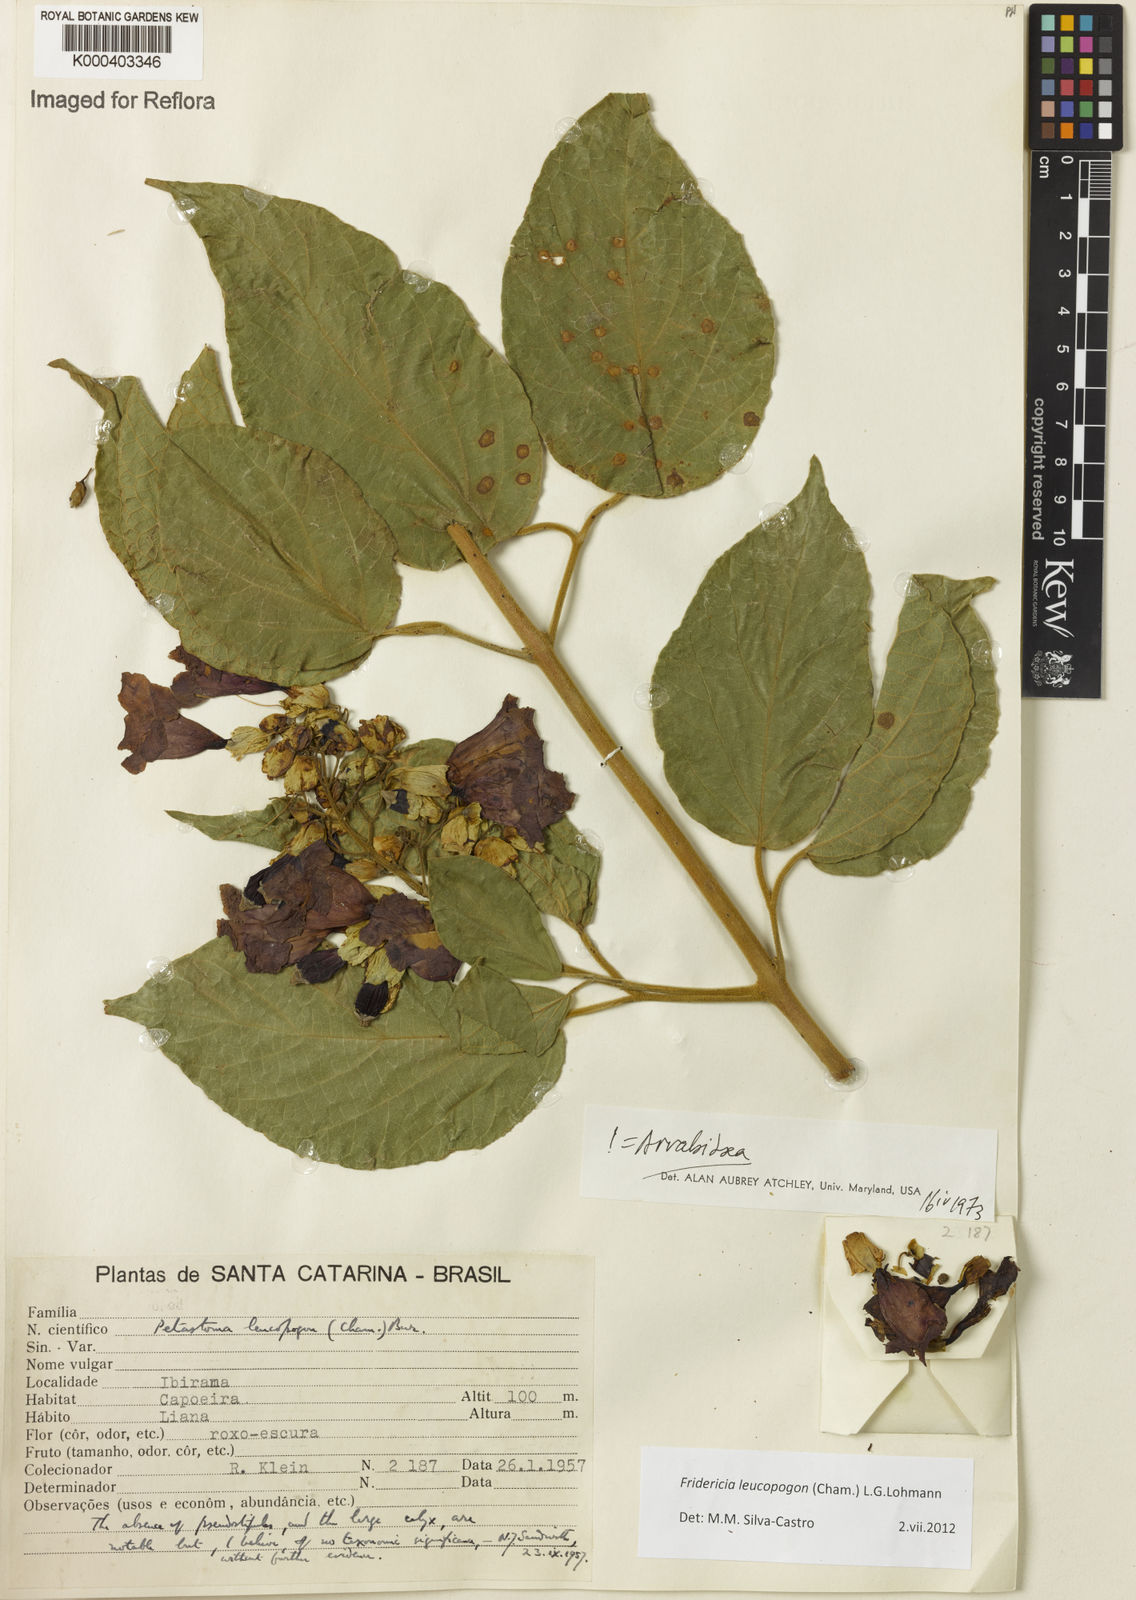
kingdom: Plantae
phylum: Tracheophyta
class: Magnoliopsida
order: Lamiales
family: Bignoniaceae
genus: Fridericia
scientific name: Fridericia leucopogon
